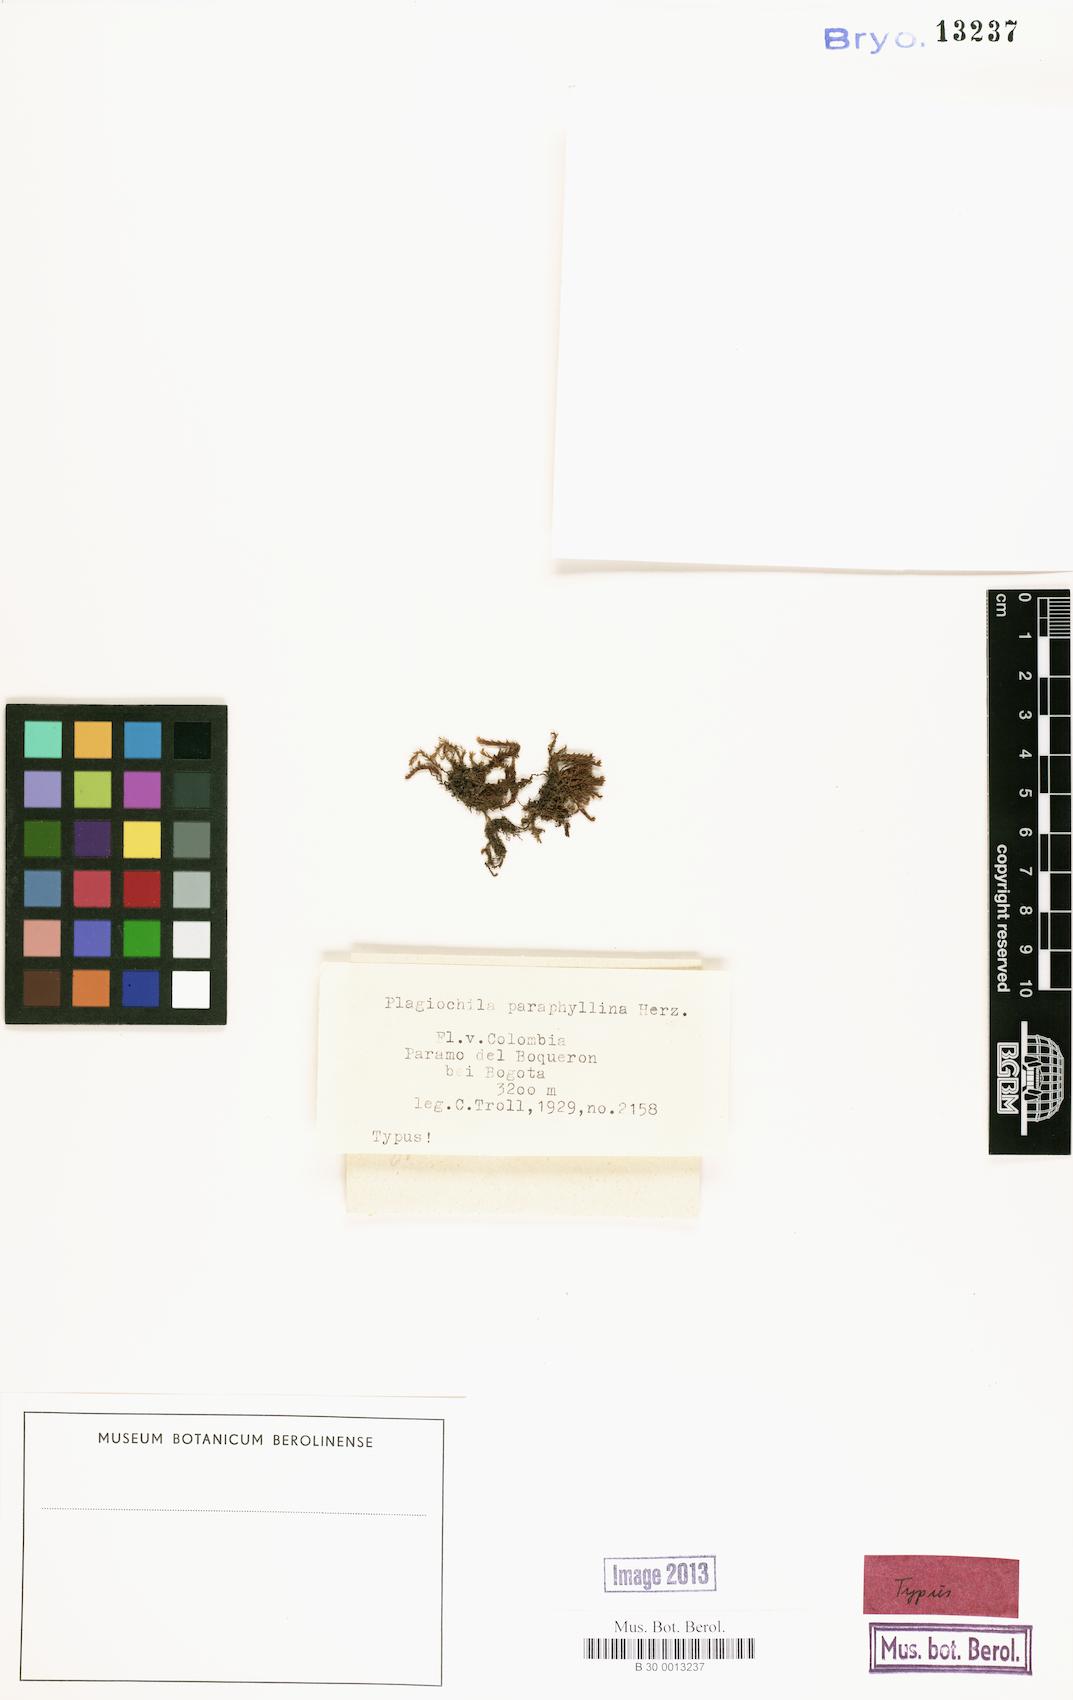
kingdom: Plantae
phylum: Marchantiophyta
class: Jungermanniopsida
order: Jungermanniales
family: Plagiochilaceae
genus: Plagiochila
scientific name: Plagiochila paraphyllina
